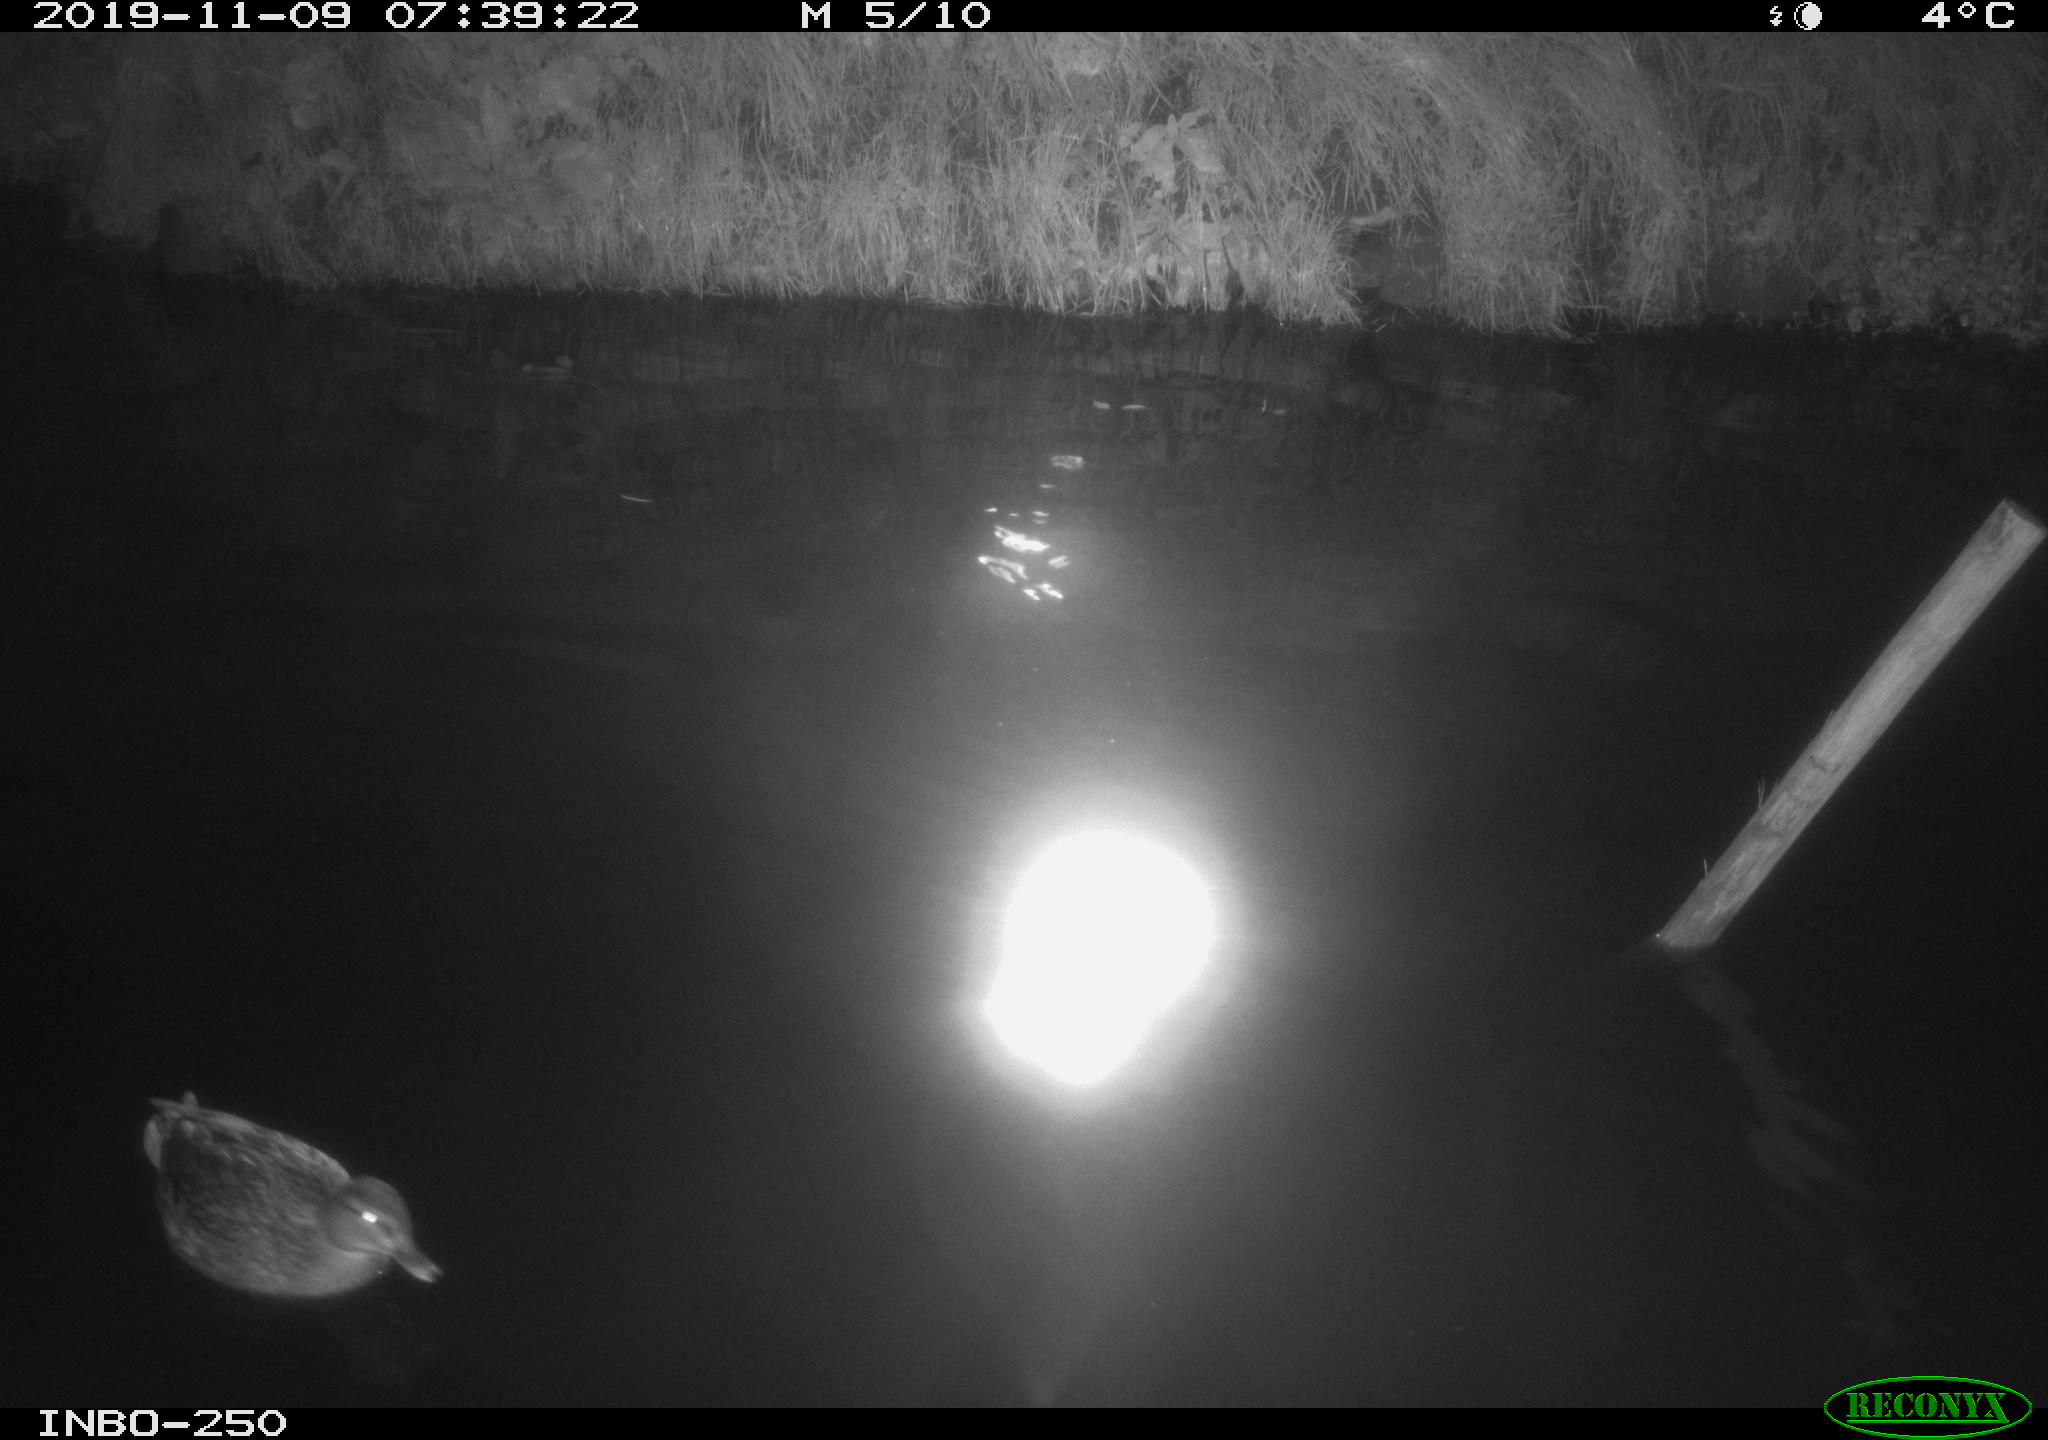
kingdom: Animalia
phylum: Chordata
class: Aves
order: Anseriformes
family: Anatidae
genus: Anas
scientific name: Anas platyrhynchos
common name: Mallard
